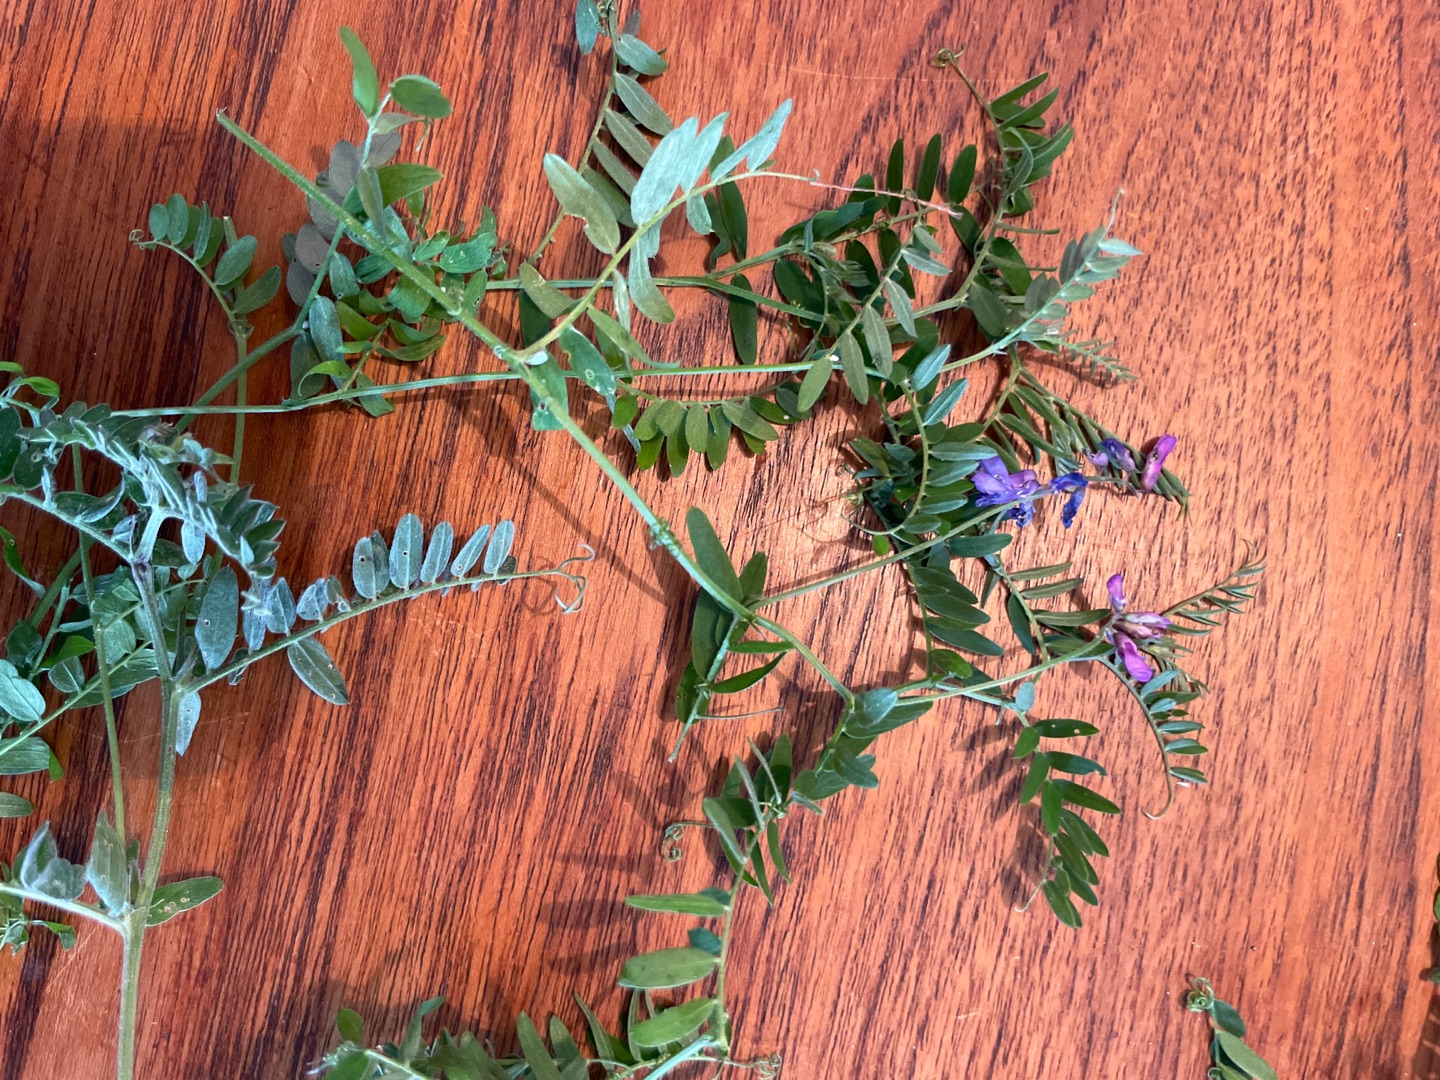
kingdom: Plantae
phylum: Tracheophyta
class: Magnoliopsida
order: Fabales
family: Fabaceae
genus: Vicia
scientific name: Vicia cracca
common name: Muse-vikke
